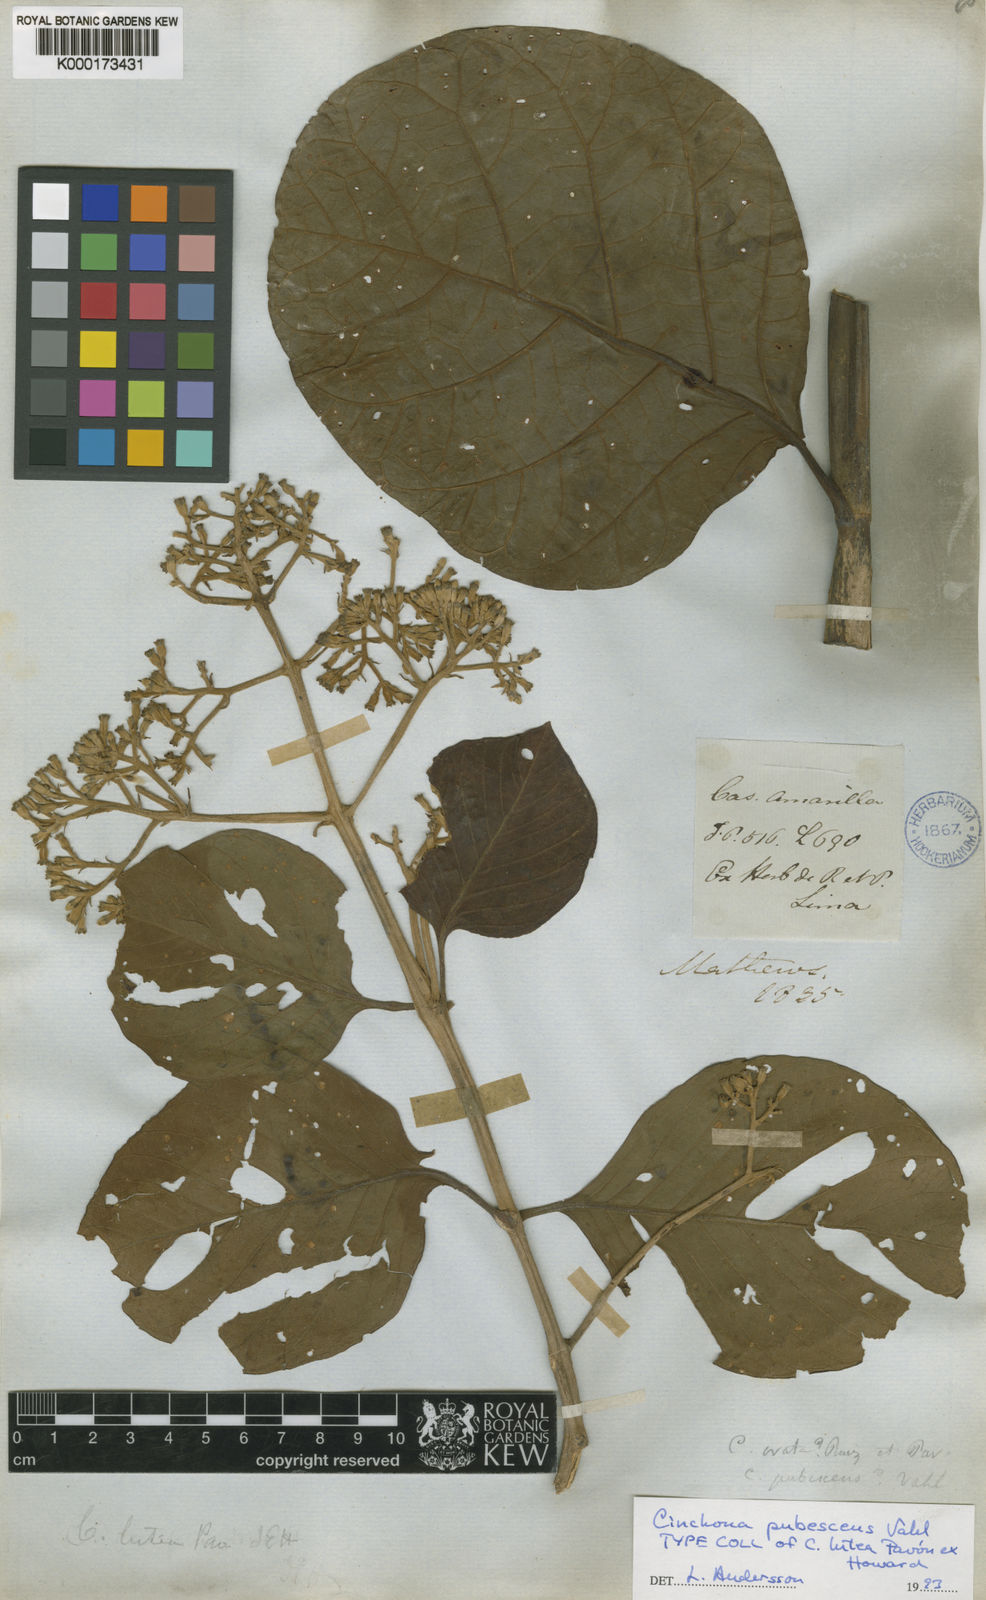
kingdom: Plantae
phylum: Tracheophyta
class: Magnoliopsida
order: Gentianales
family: Rubiaceae
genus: Cinchona
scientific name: Cinchona pubescens
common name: Quinine
